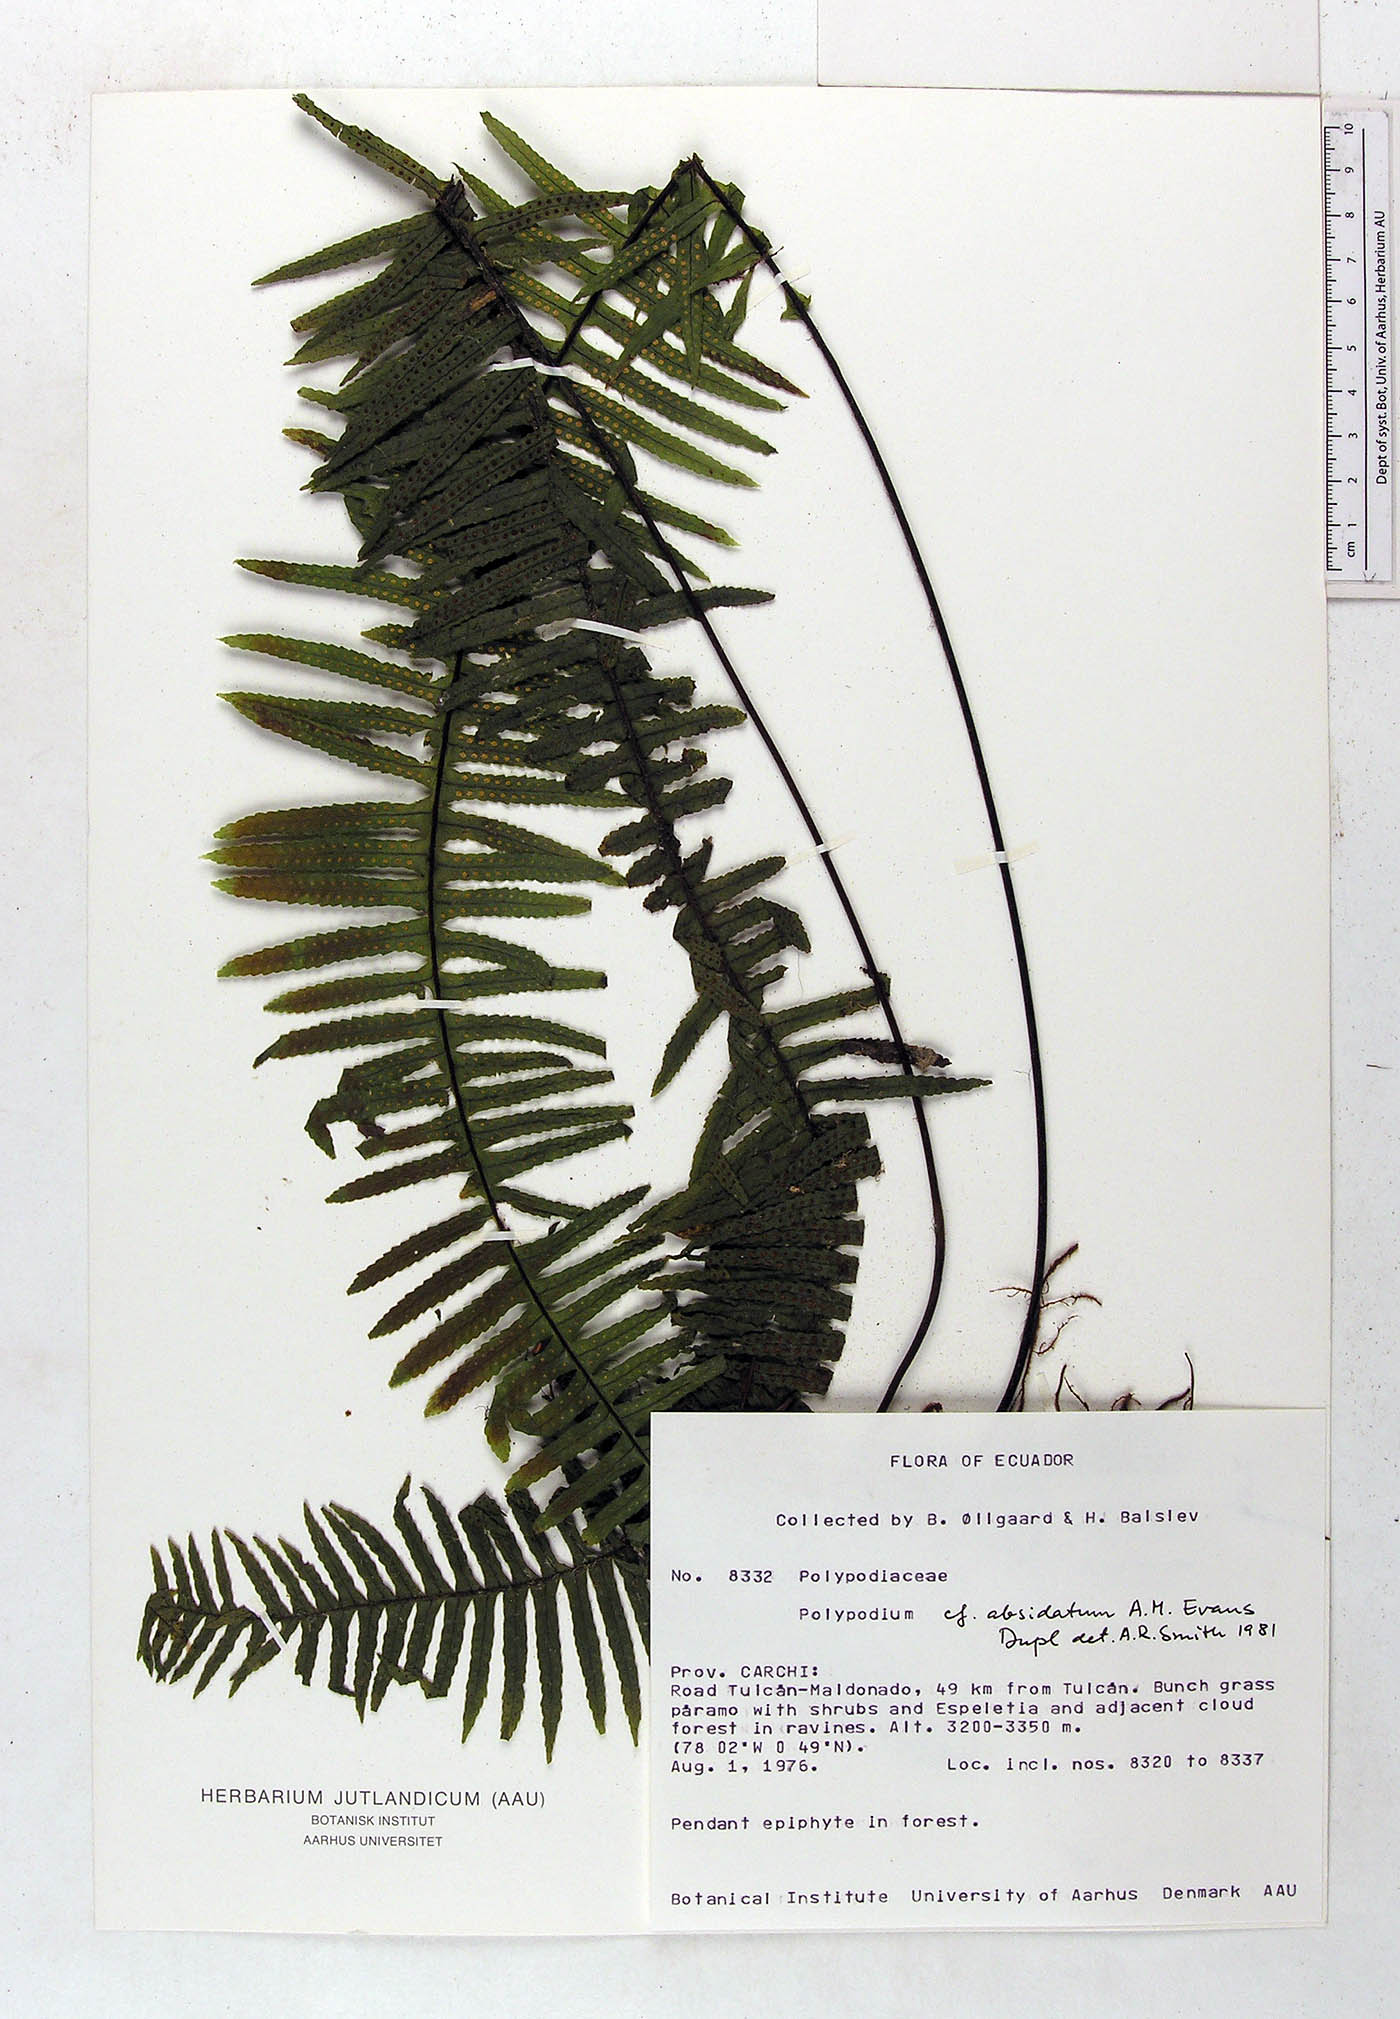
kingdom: Plantae
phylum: Tracheophyta
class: Polypodiopsida
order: Polypodiales
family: Polypodiaceae
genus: Pecluma
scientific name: Pecluma absidata
